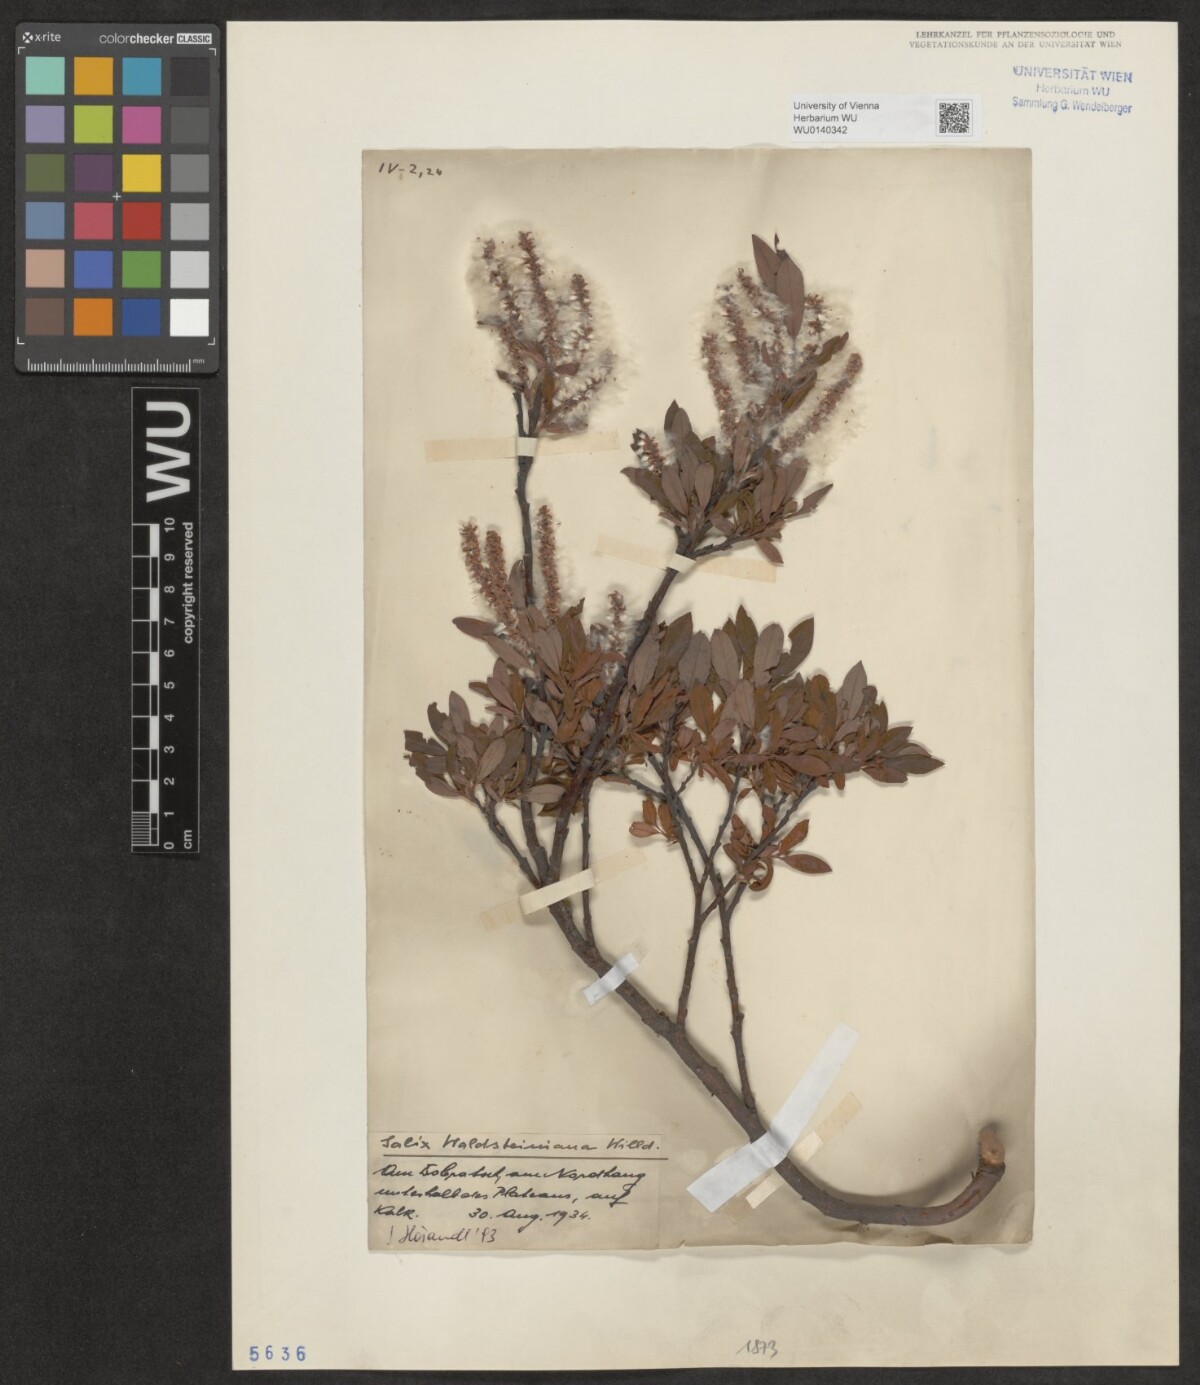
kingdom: Plantae
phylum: Tracheophyta
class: Magnoliopsida
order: Malpighiales
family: Salicaceae
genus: Salix
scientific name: Salix waldsteiniana
